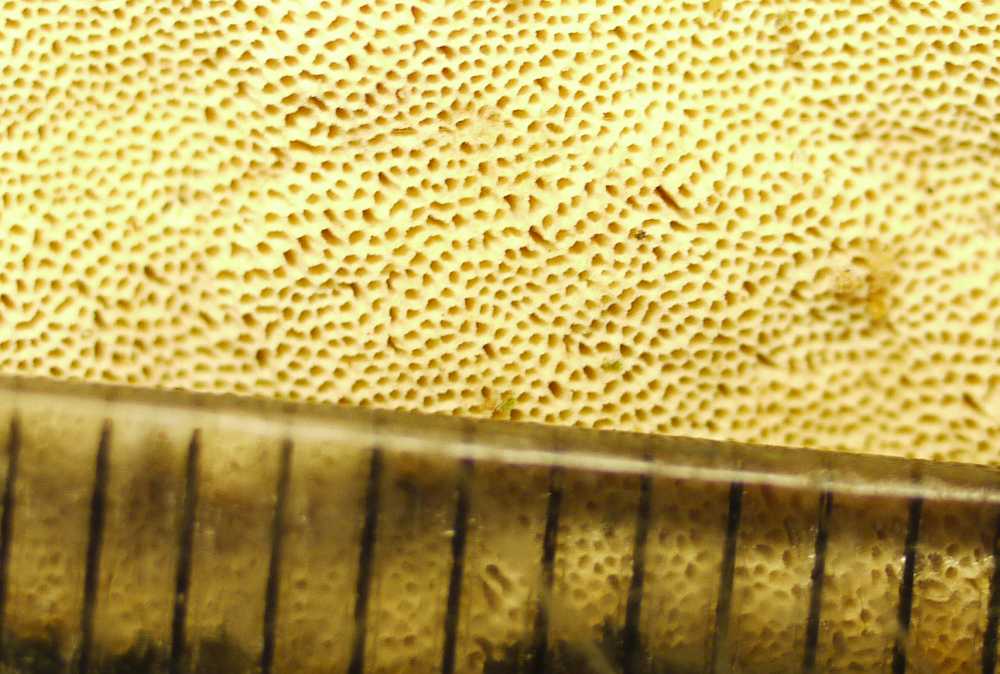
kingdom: Fungi
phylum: Basidiomycota
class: Agaricomycetes
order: Hymenochaetales
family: Schizoporaceae
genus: Xylodon
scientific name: Xylodon flaviporus
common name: gulporet tandsvamp
